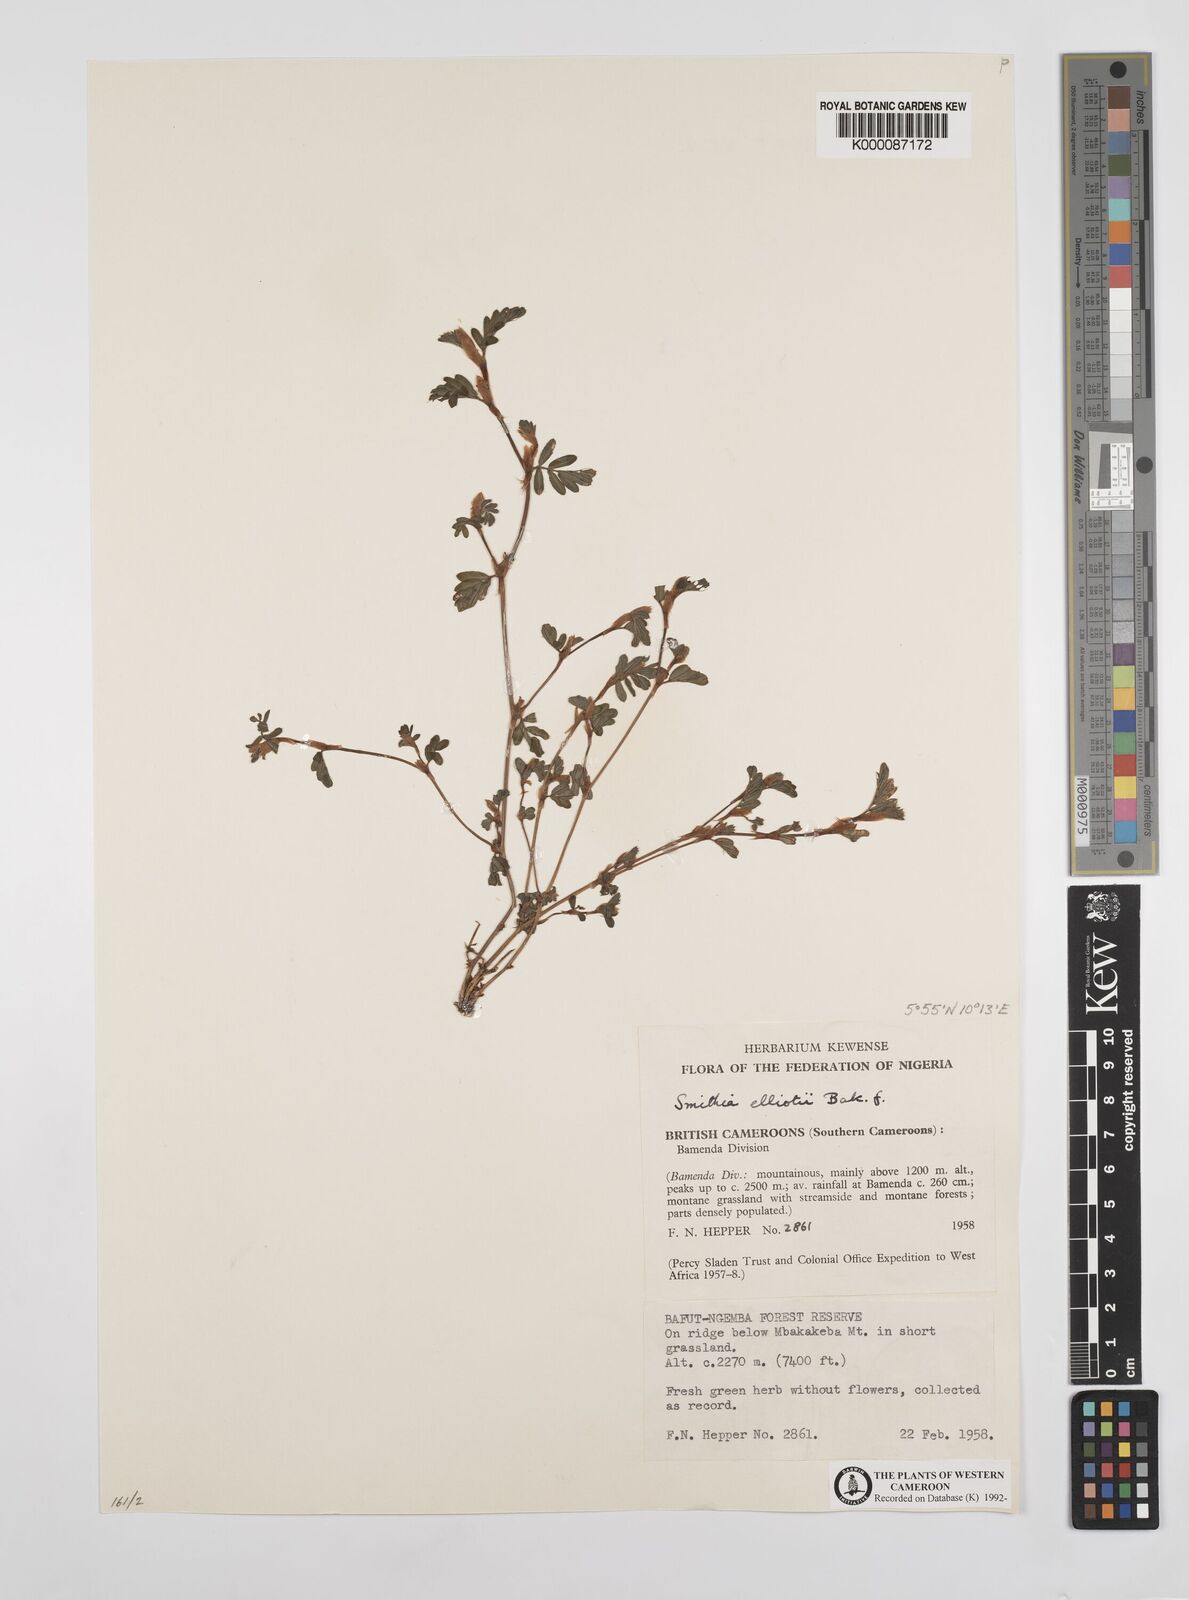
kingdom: Plantae
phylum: Tracheophyta
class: Magnoliopsida
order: Fabales
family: Fabaceae
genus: Smithia
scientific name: Smithia elliotii
